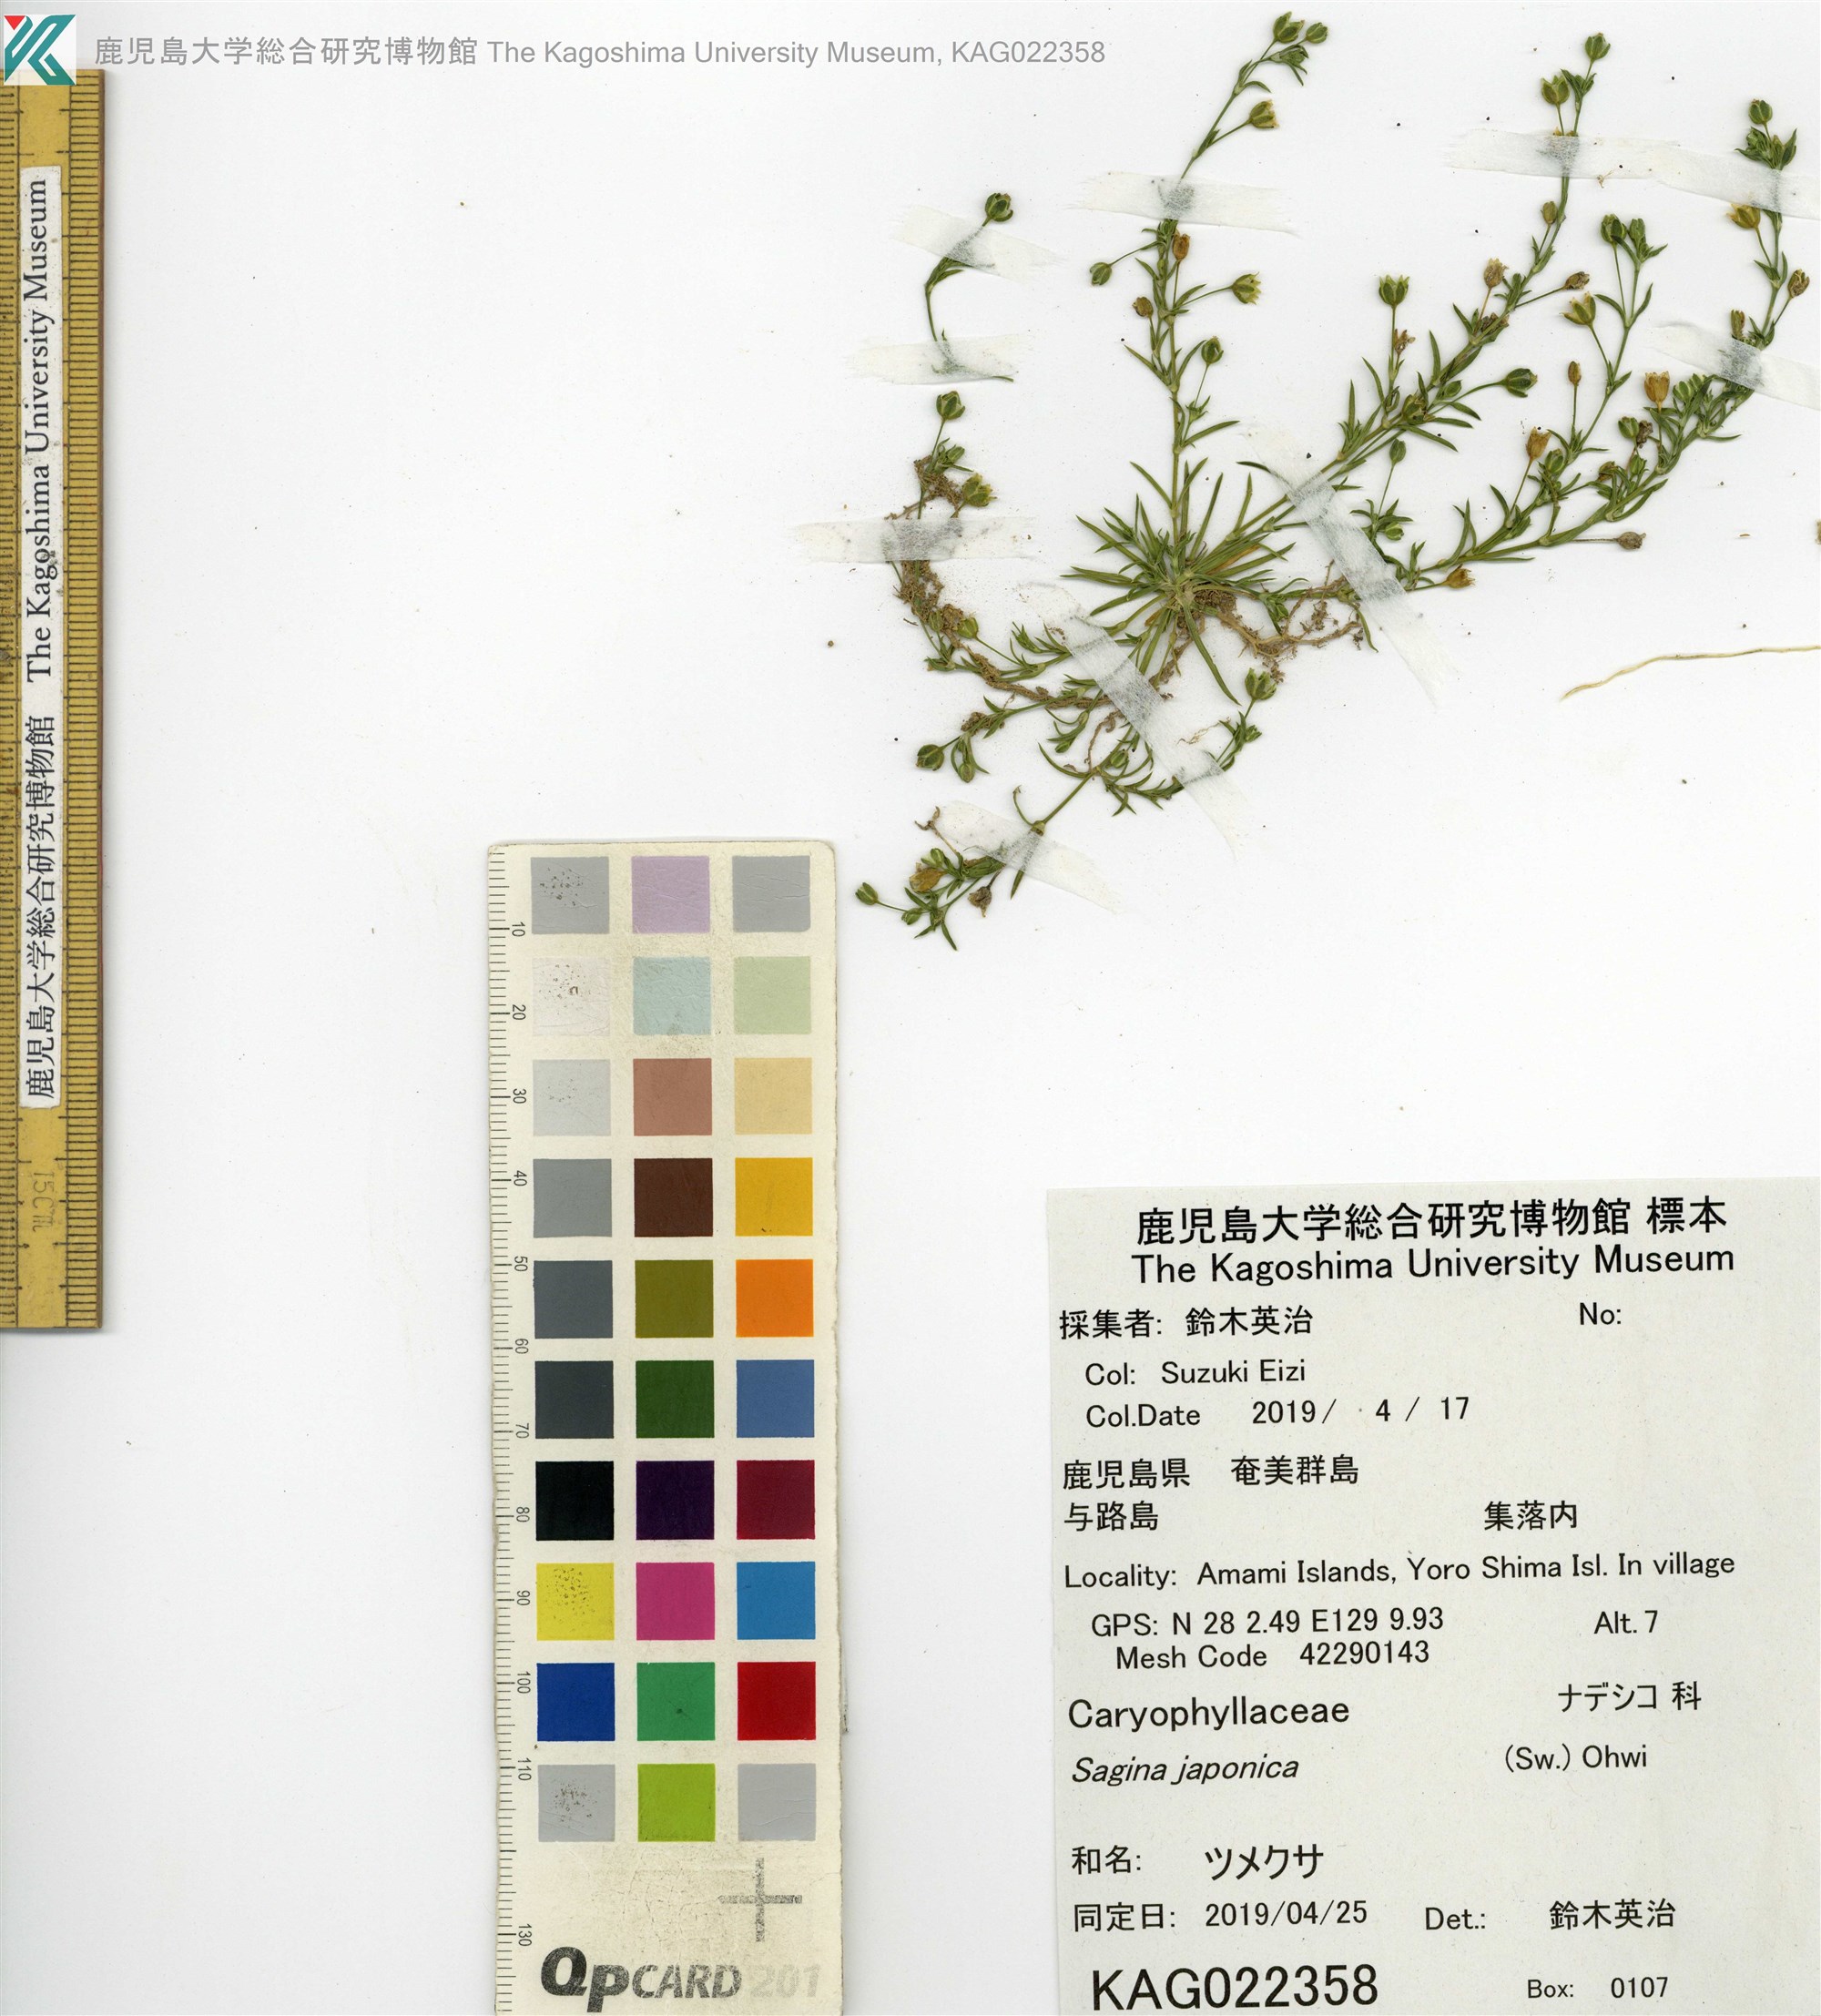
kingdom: Plantae
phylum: Tracheophyta
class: Magnoliopsida
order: Caryophyllales
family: Caryophyllaceae
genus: Sagina
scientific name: Sagina japonica
